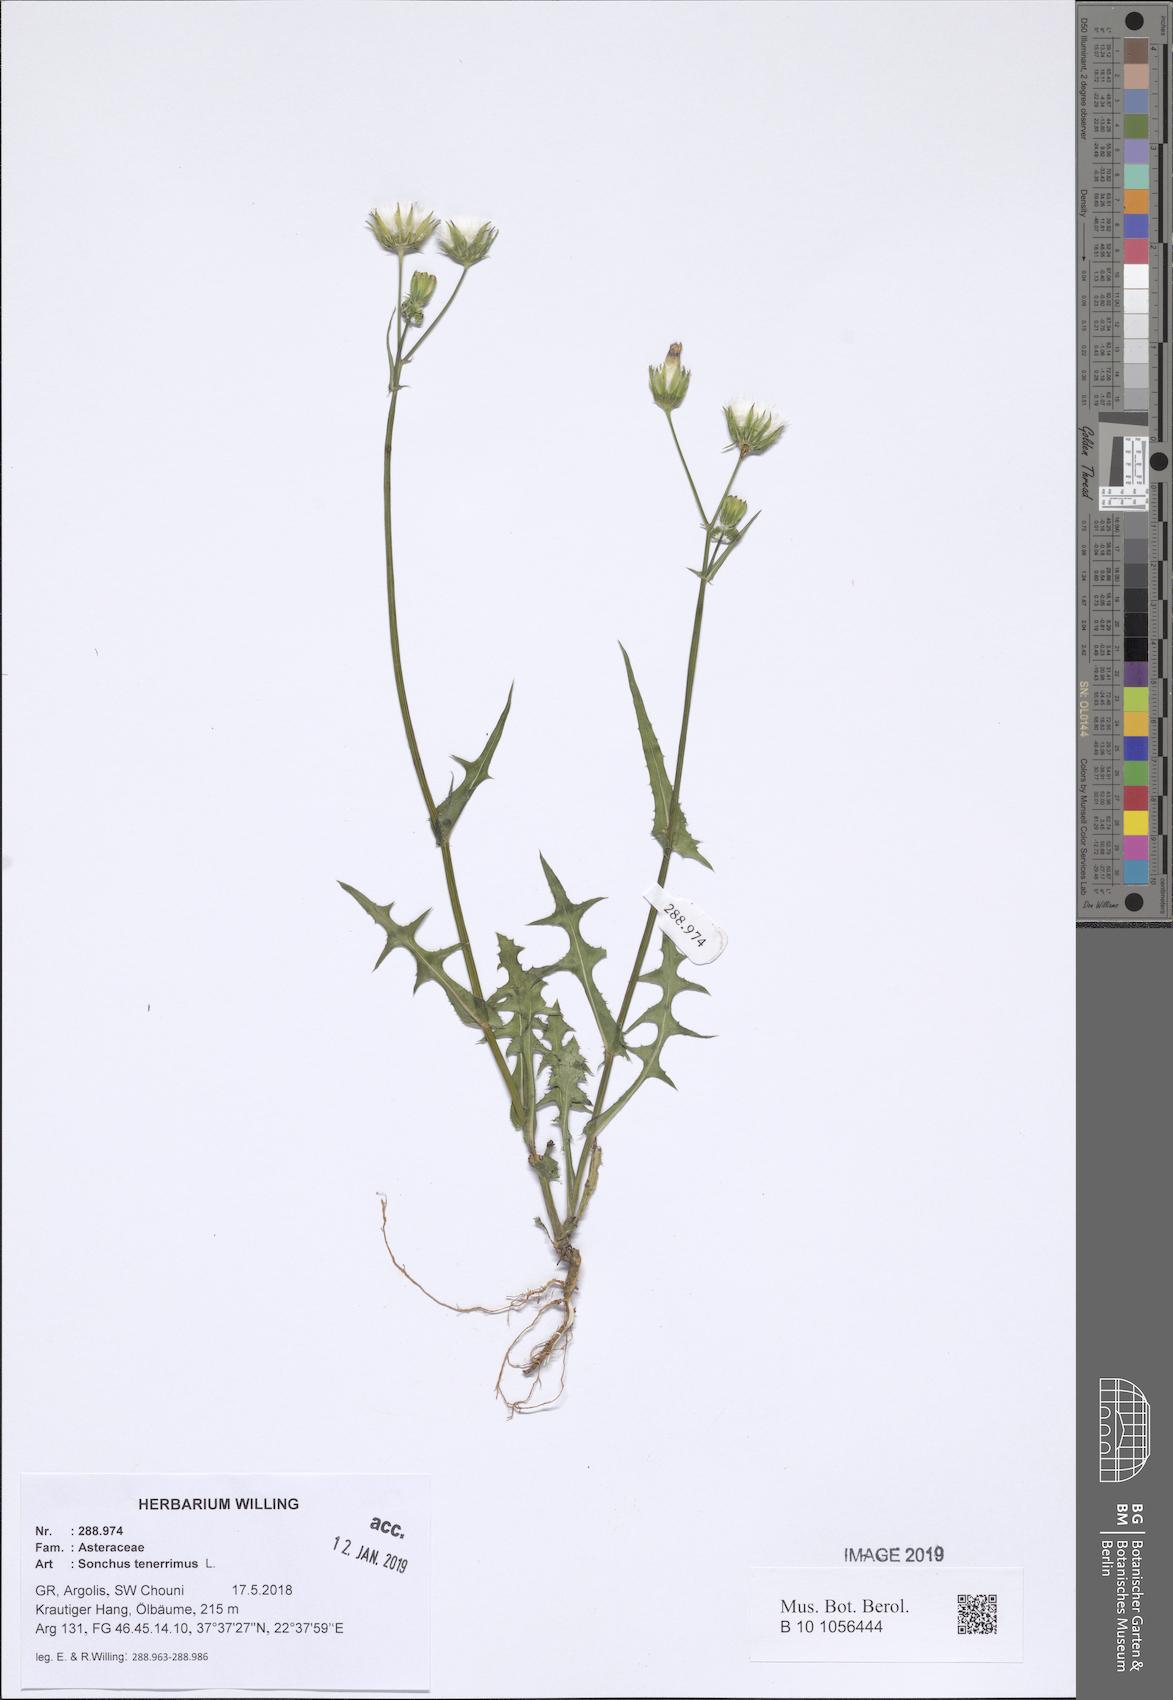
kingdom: Plantae
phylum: Tracheophyta
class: Magnoliopsida
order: Asterales
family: Asteraceae
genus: Sonchus
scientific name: Sonchus tenerrimus
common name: Clammy sowthistle
